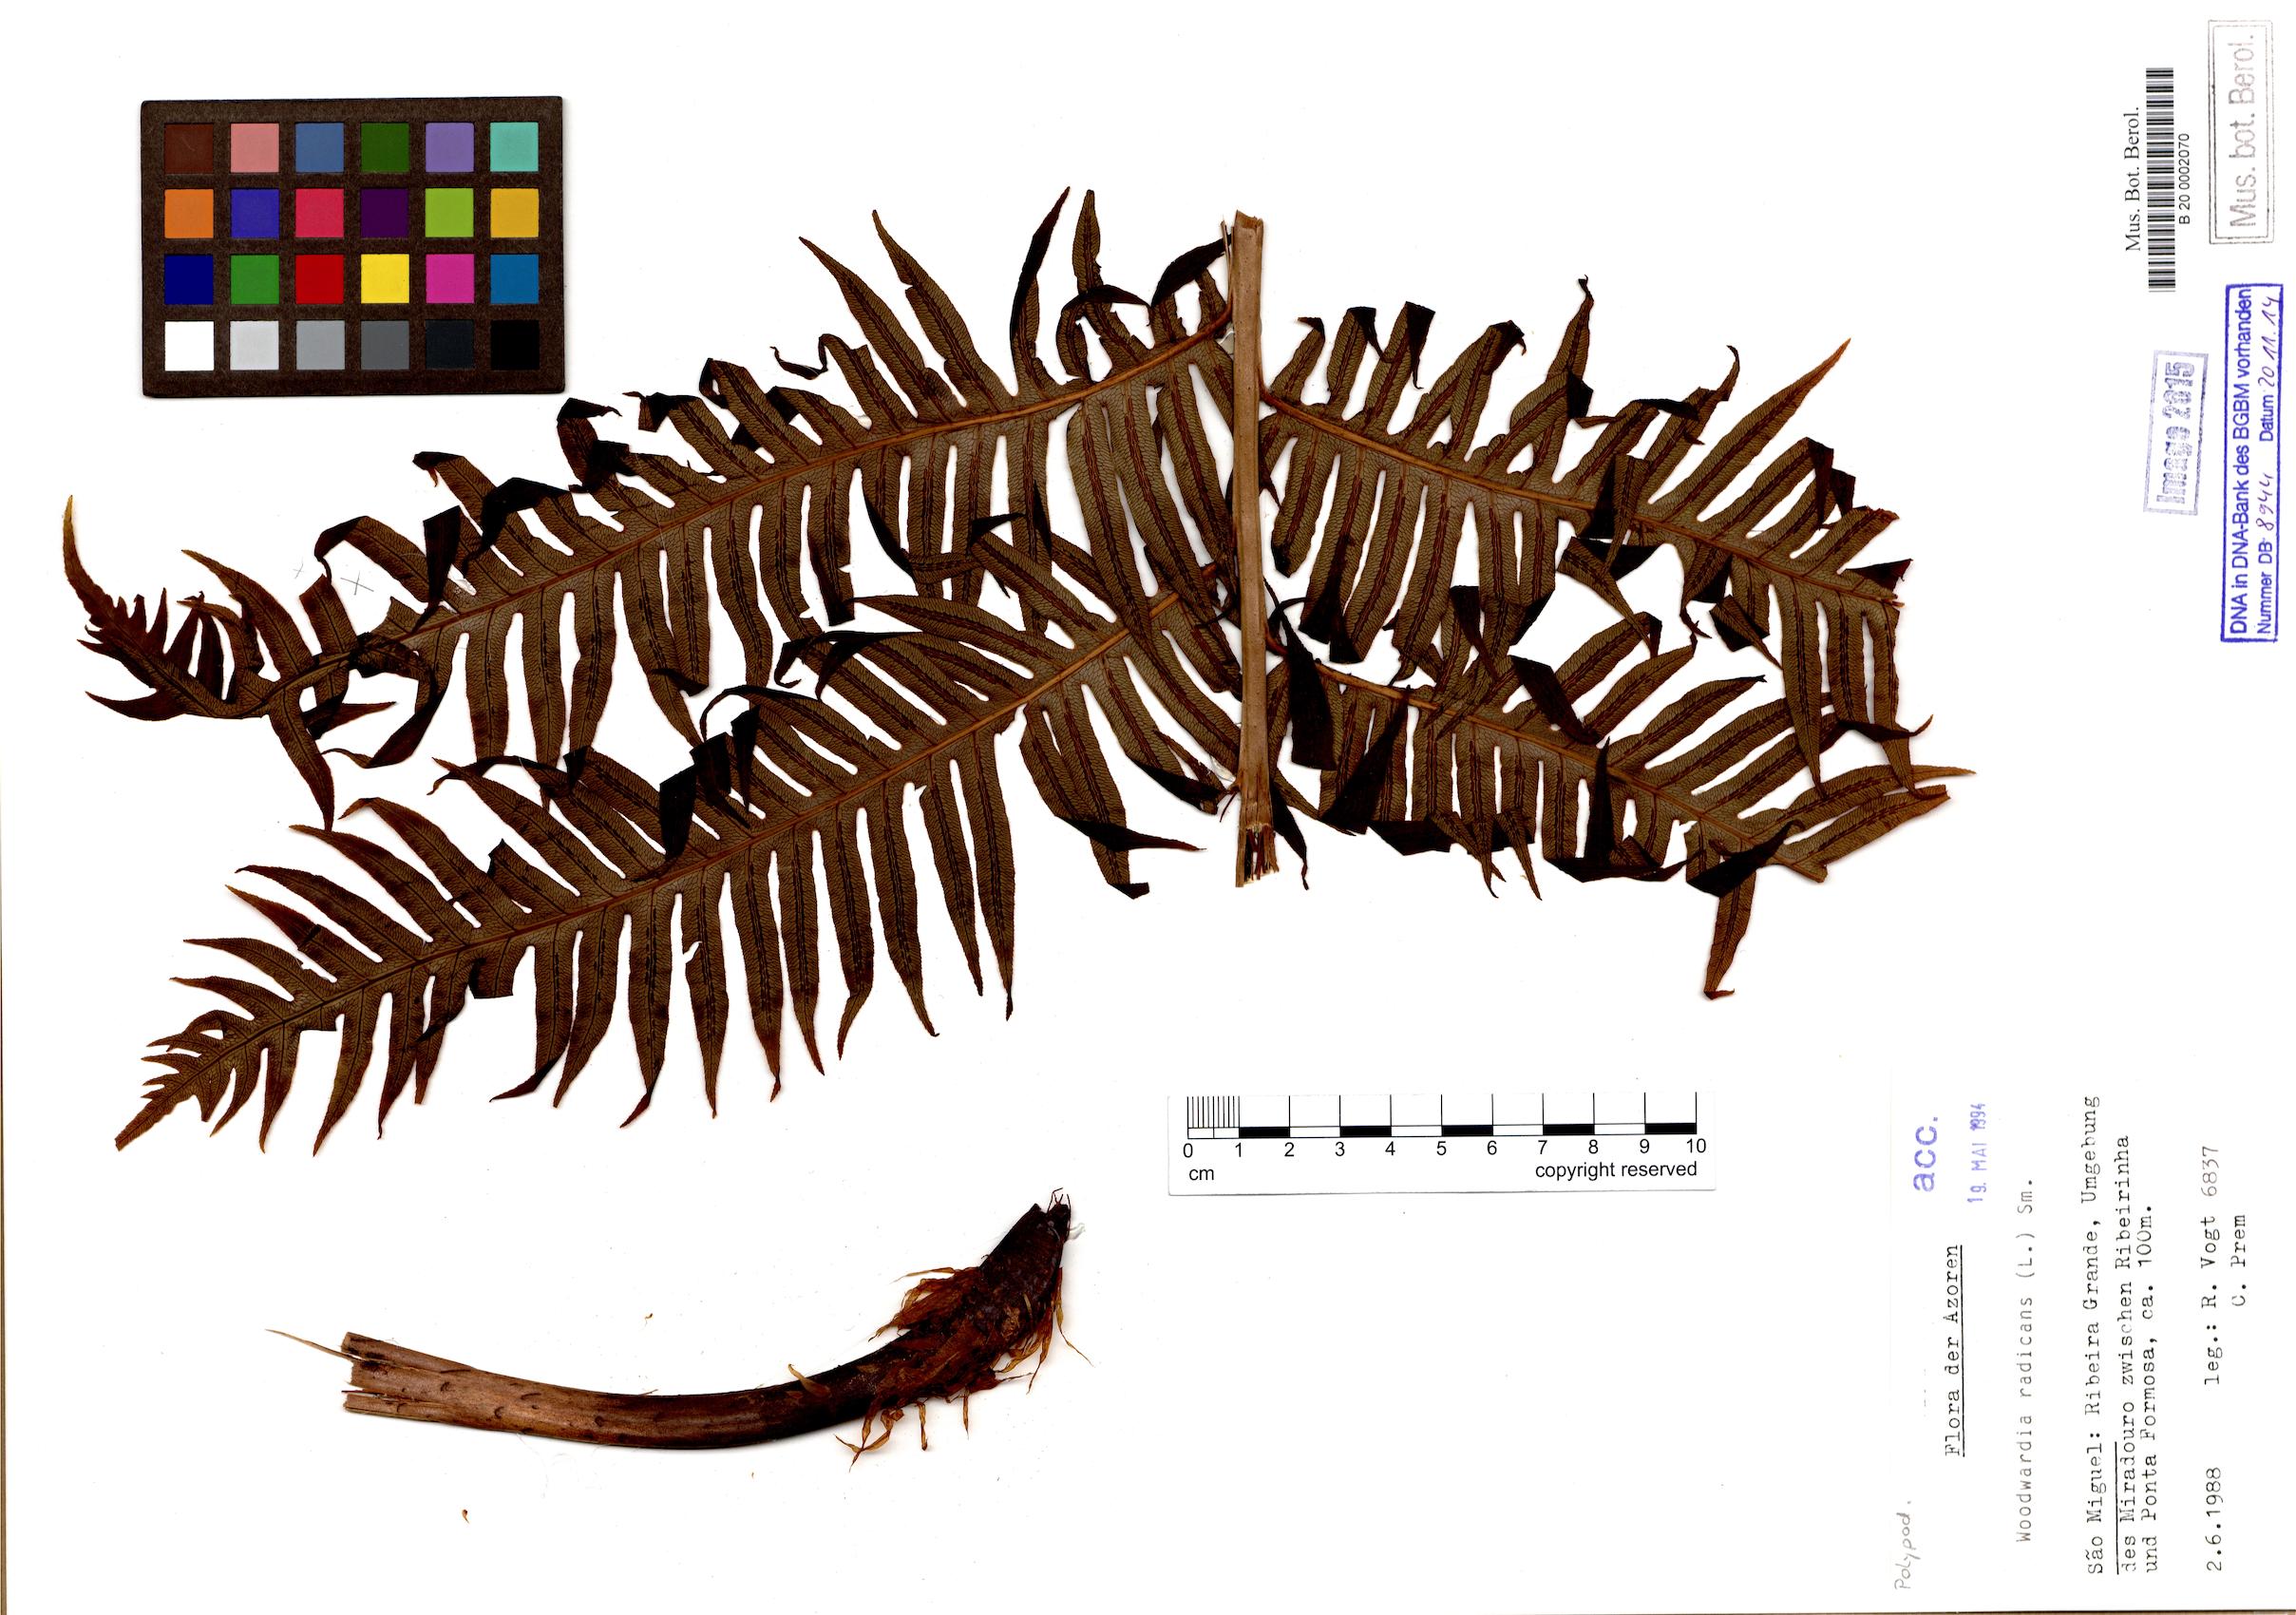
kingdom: Plantae
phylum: Tracheophyta
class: Polypodiopsida
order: Polypodiales
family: Blechnaceae
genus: Woodwardia
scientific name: Woodwardia radicans
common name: Rooting chainfern
